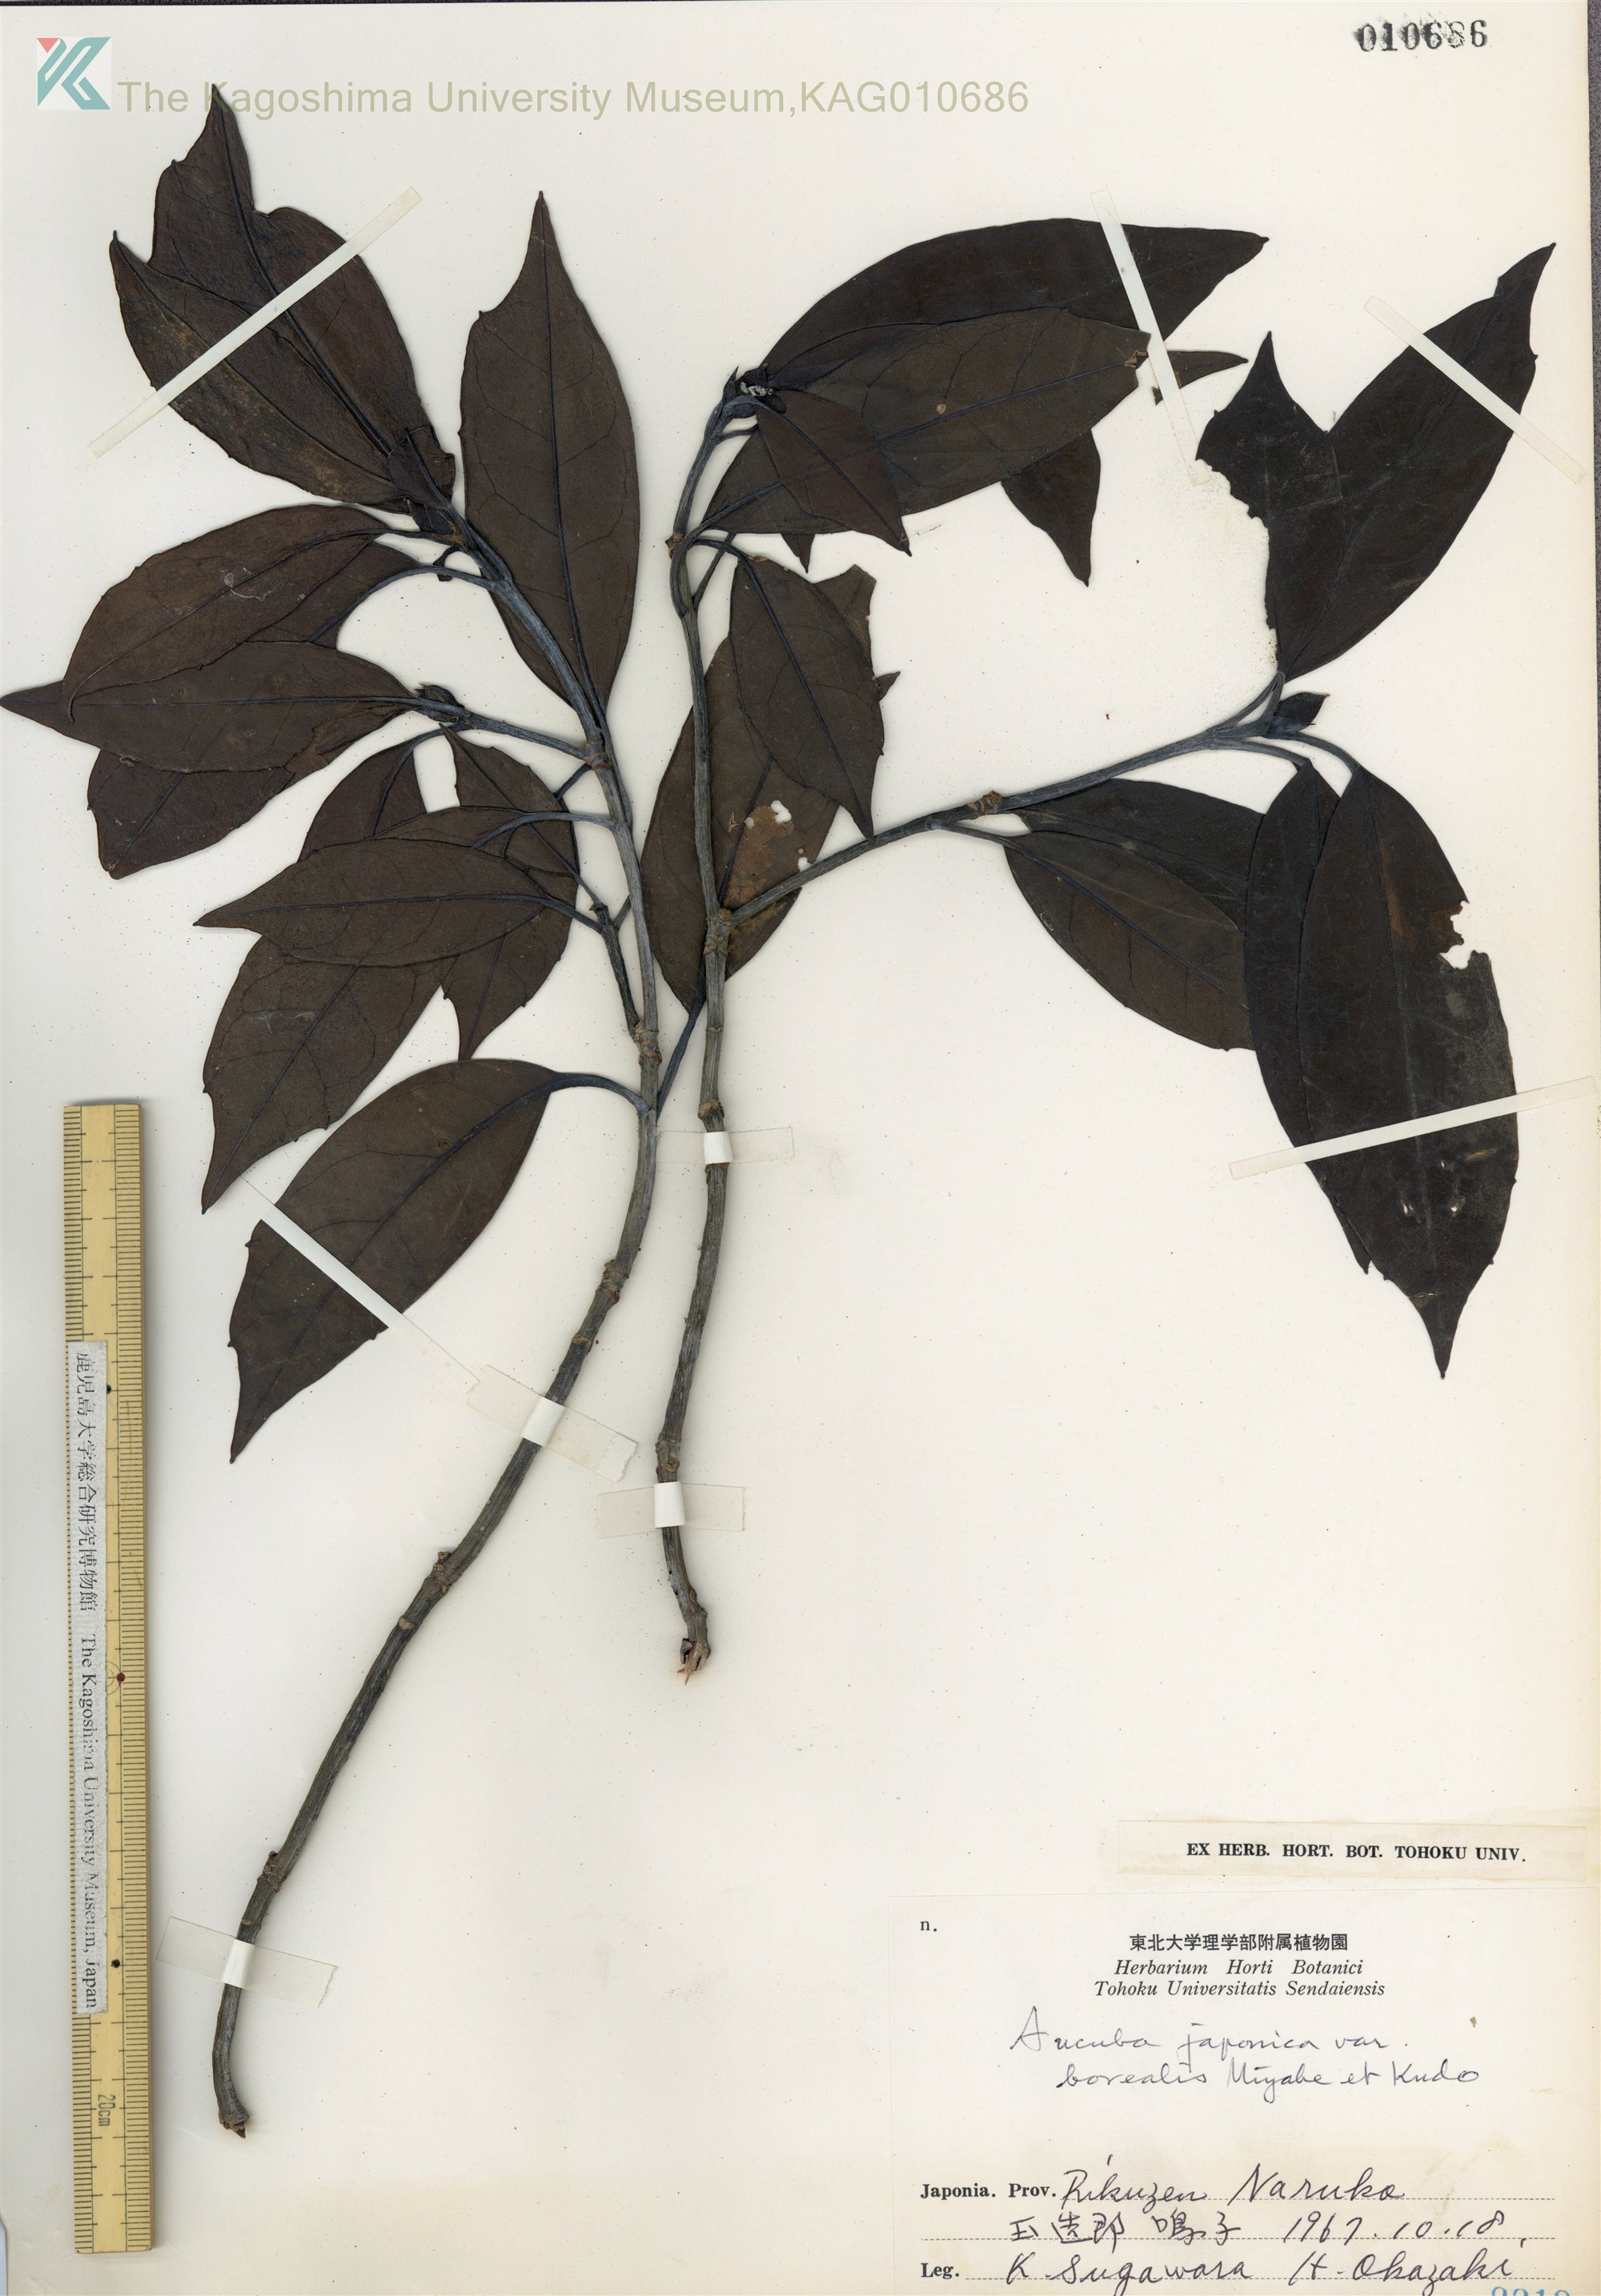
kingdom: Plantae
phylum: Tracheophyta
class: Magnoliopsida
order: Garryales
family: Garryaceae
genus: Aucuba
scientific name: Aucuba japonica
